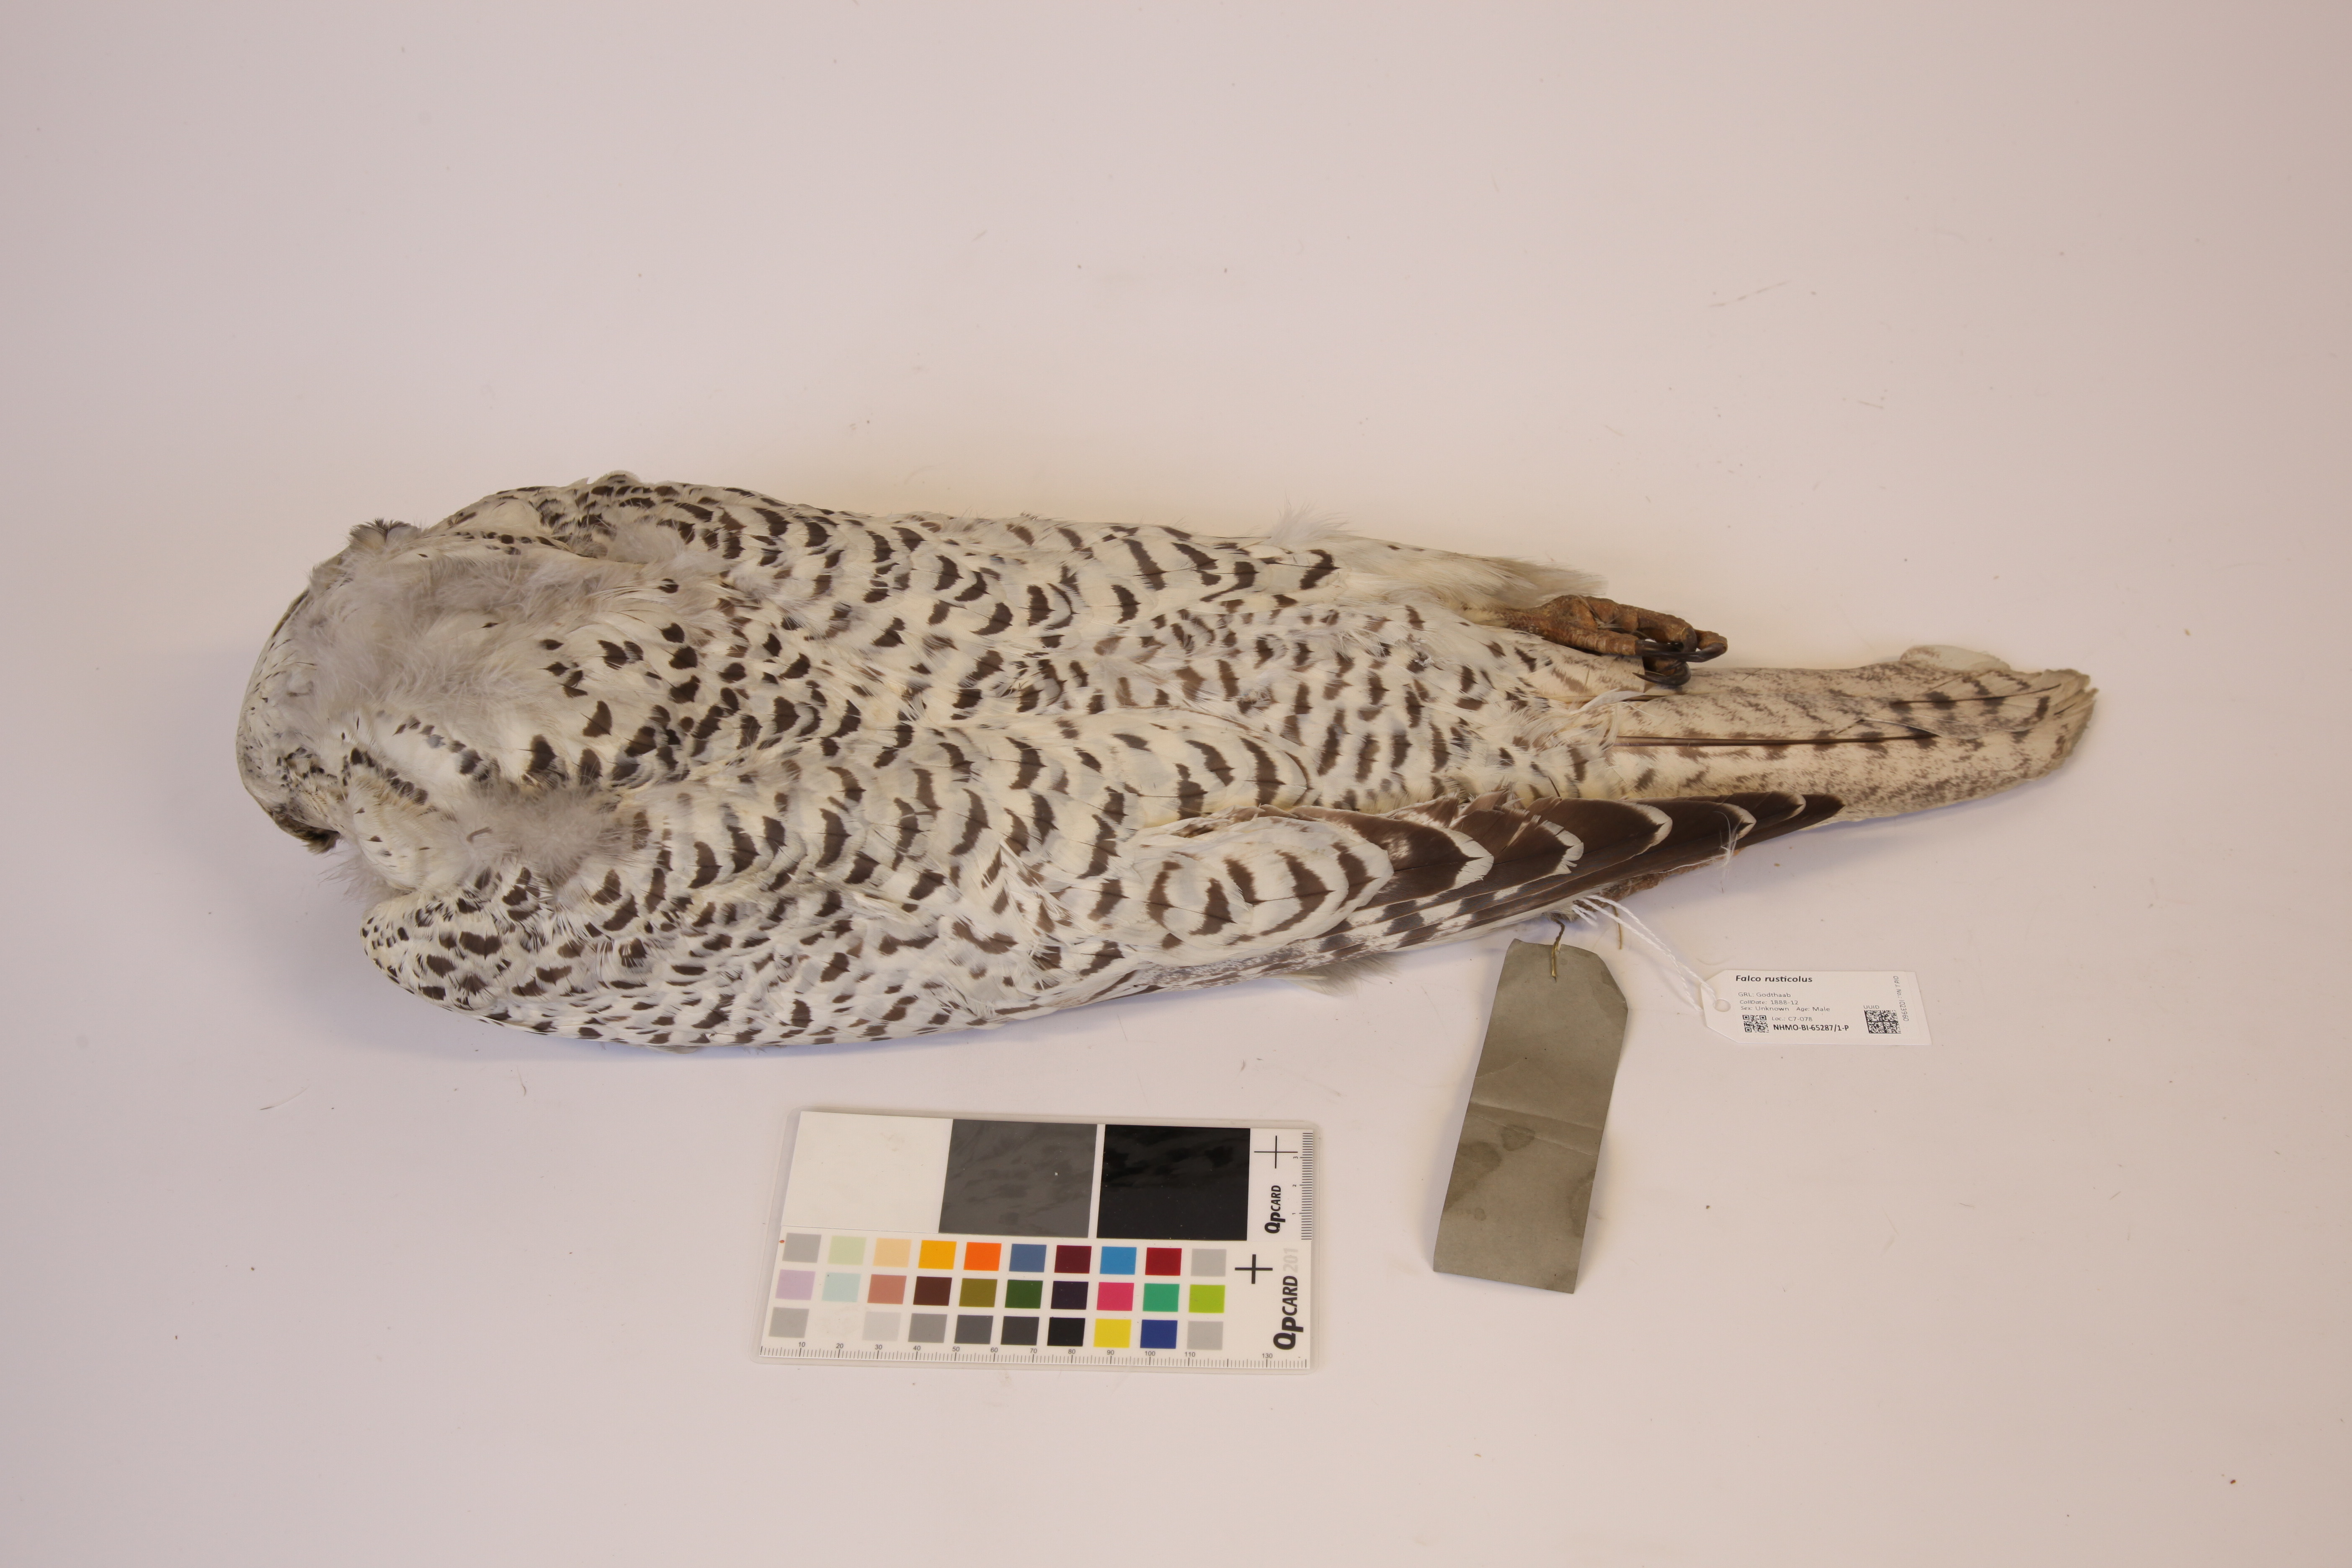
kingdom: Animalia
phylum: Chordata
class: Aves
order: Falconiformes
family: Falconidae
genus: Falco
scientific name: Falco rusticolus
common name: Gyrfalcon
